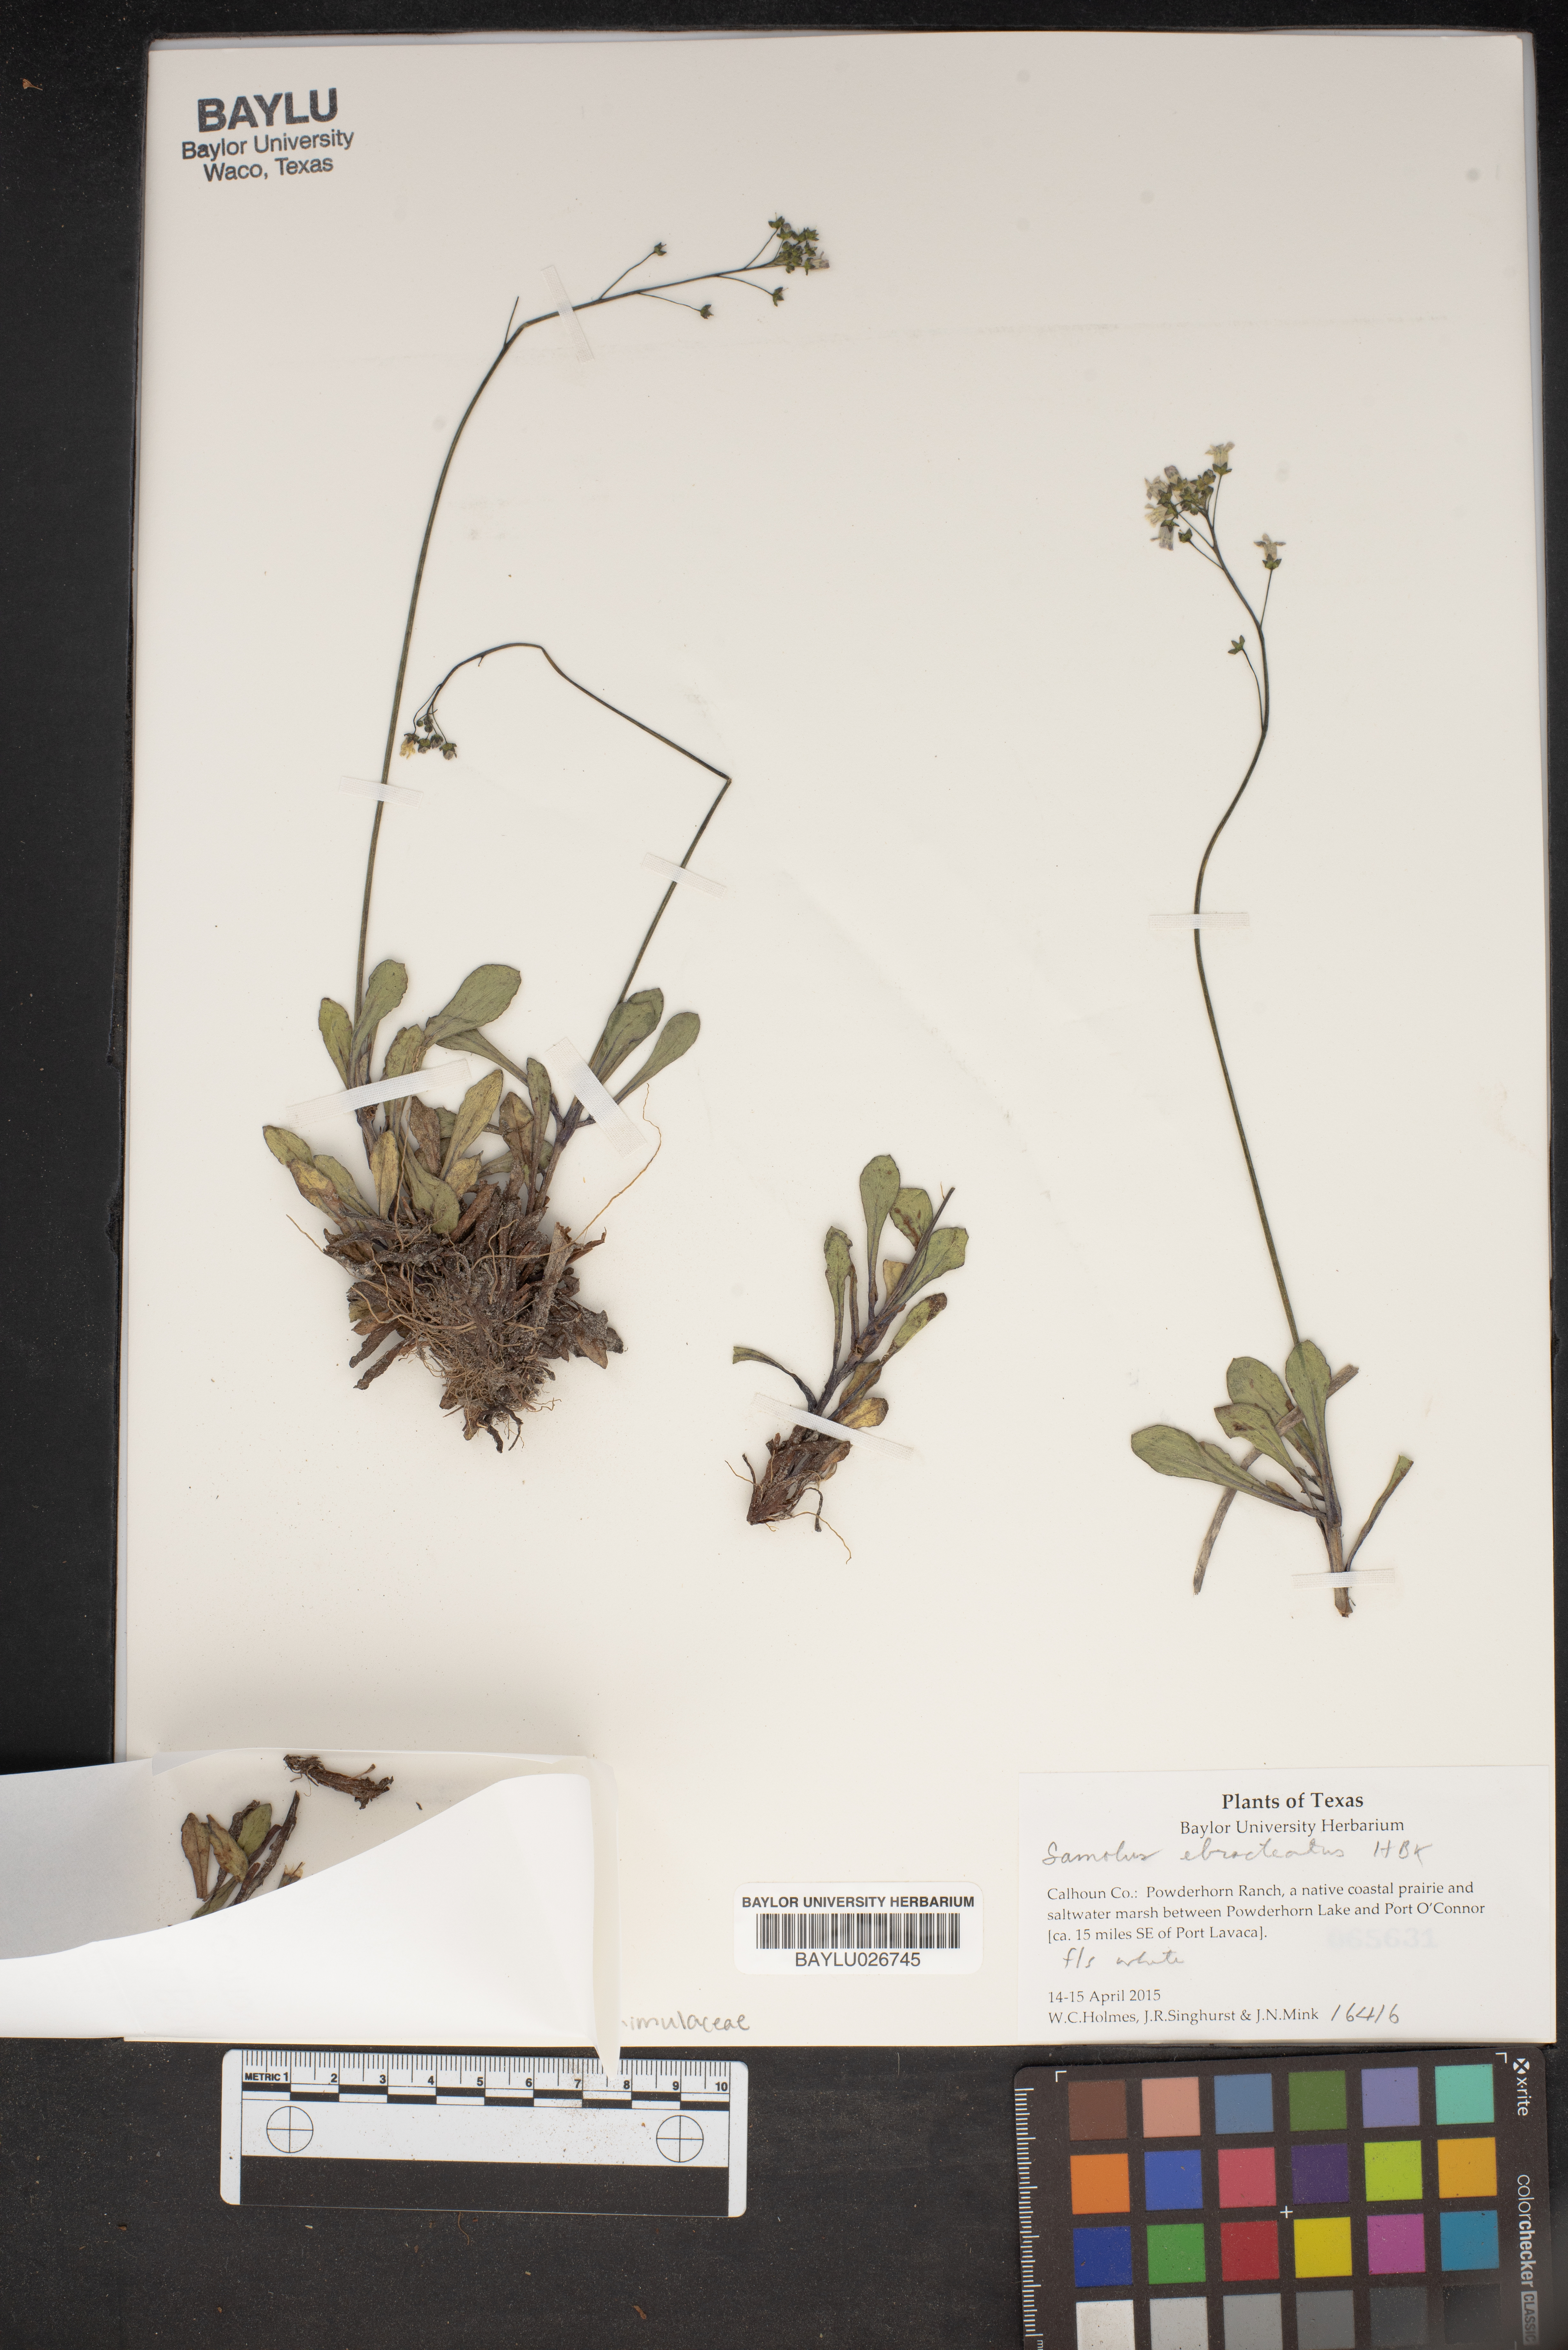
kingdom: Plantae
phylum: Tracheophyta
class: Magnoliopsida
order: Ericales
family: Primulaceae
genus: Samolus
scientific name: Samolus ebracteatus
